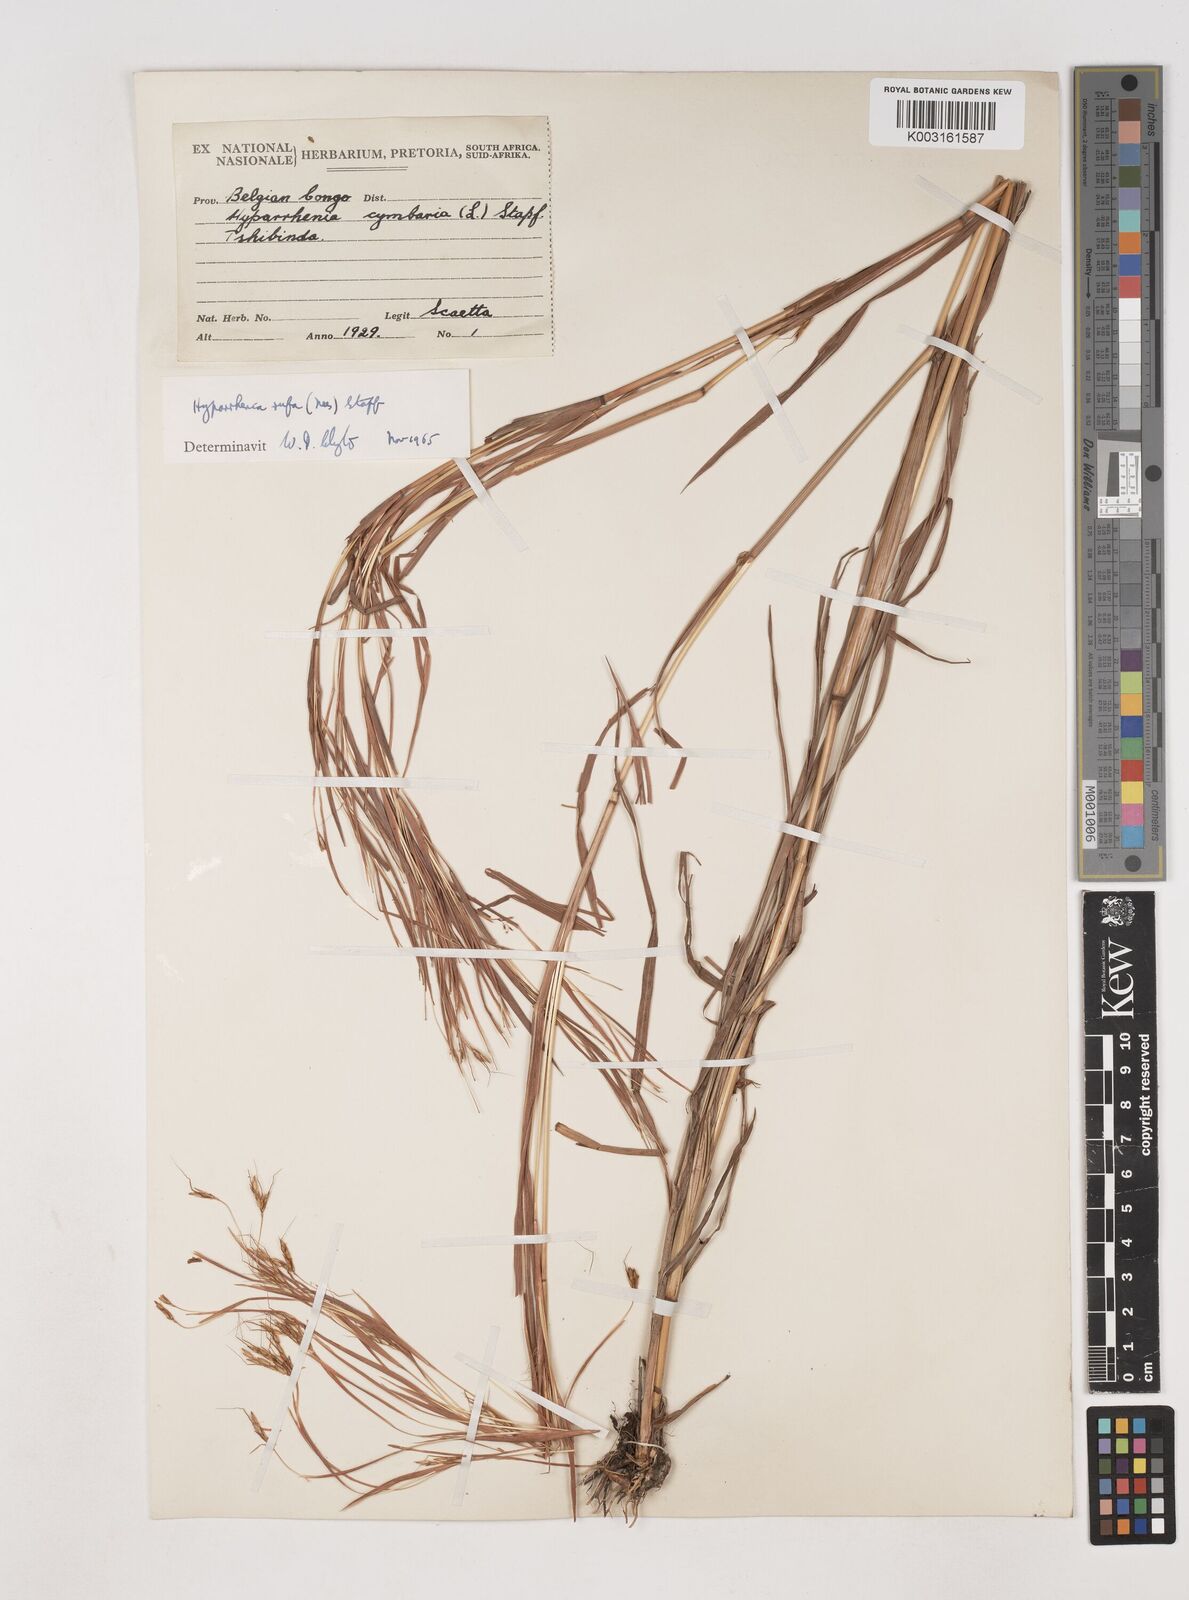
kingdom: Plantae
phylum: Tracheophyta
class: Liliopsida
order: Poales
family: Poaceae
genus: Hyparrhenia
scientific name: Hyparrhenia rufa
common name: Jaraguagrass
